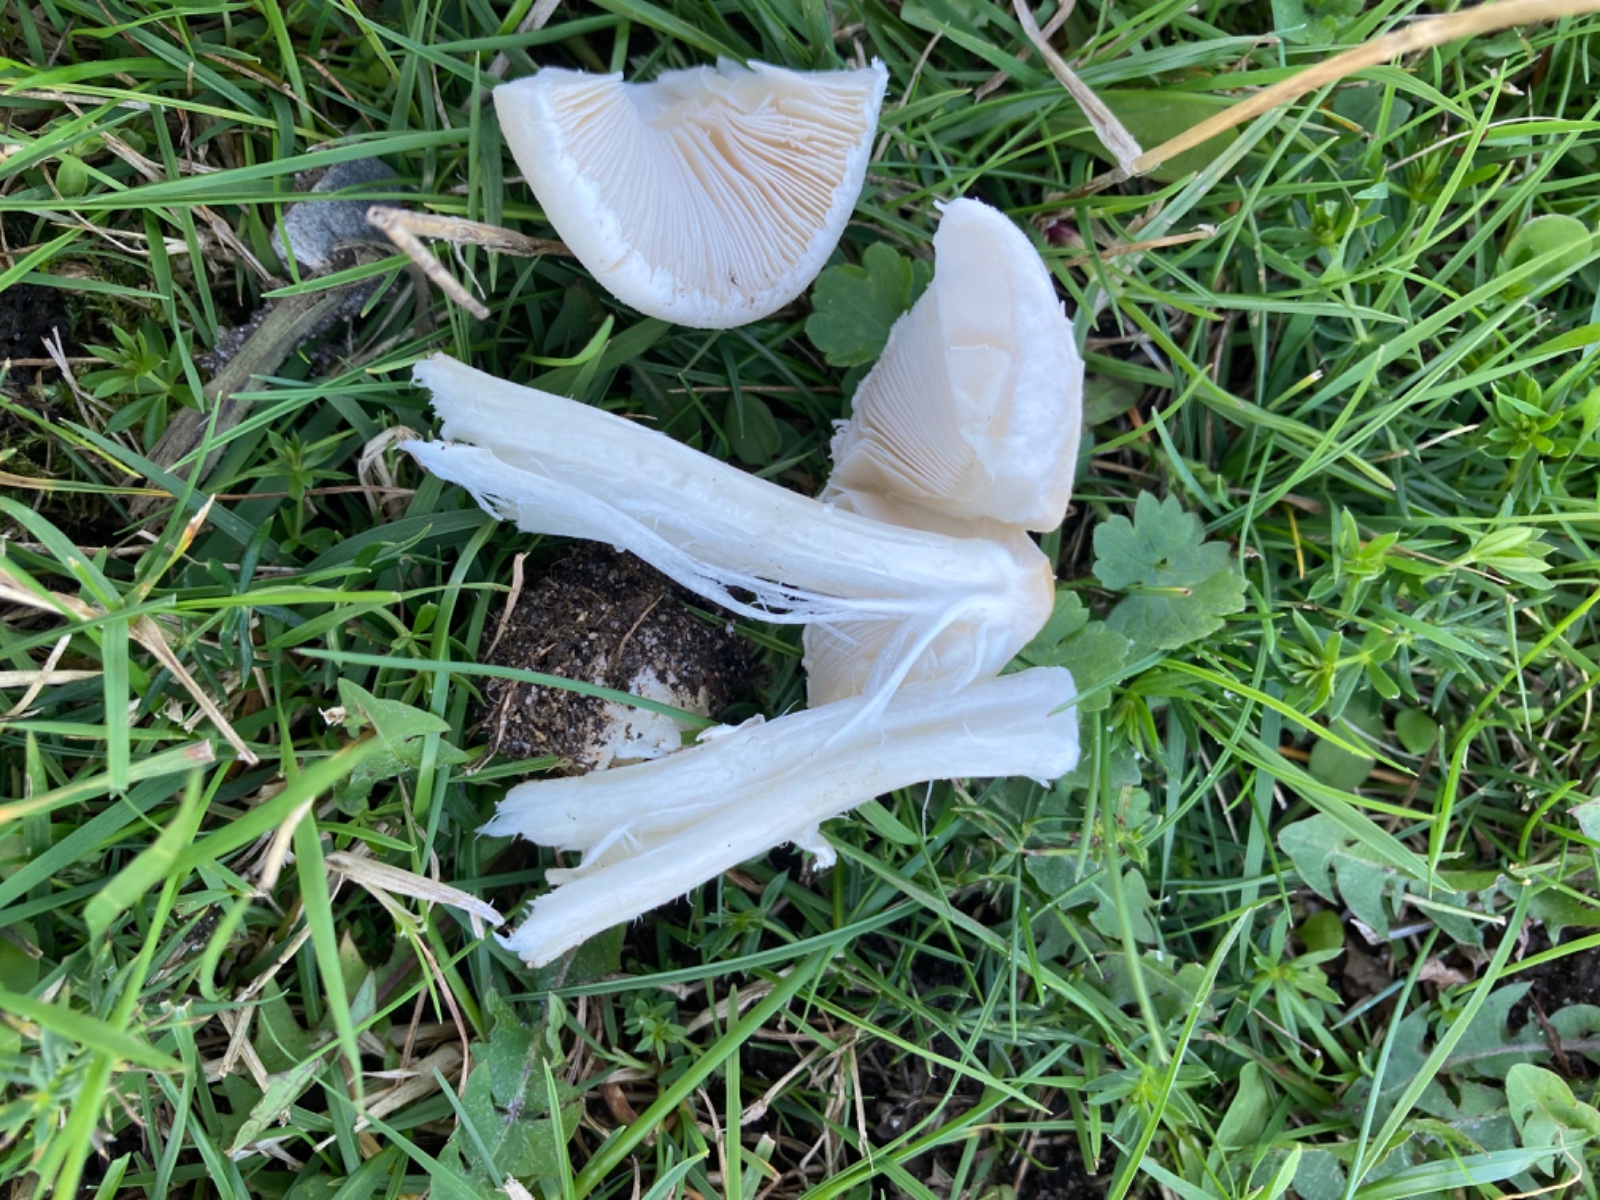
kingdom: Fungi
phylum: Basidiomycota
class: Agaricomycetes
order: Agaricales
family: Agaricaceae
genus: Macrolepiota
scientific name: Macrolepiota excoriata
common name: mark-kæmpeparasolhat
